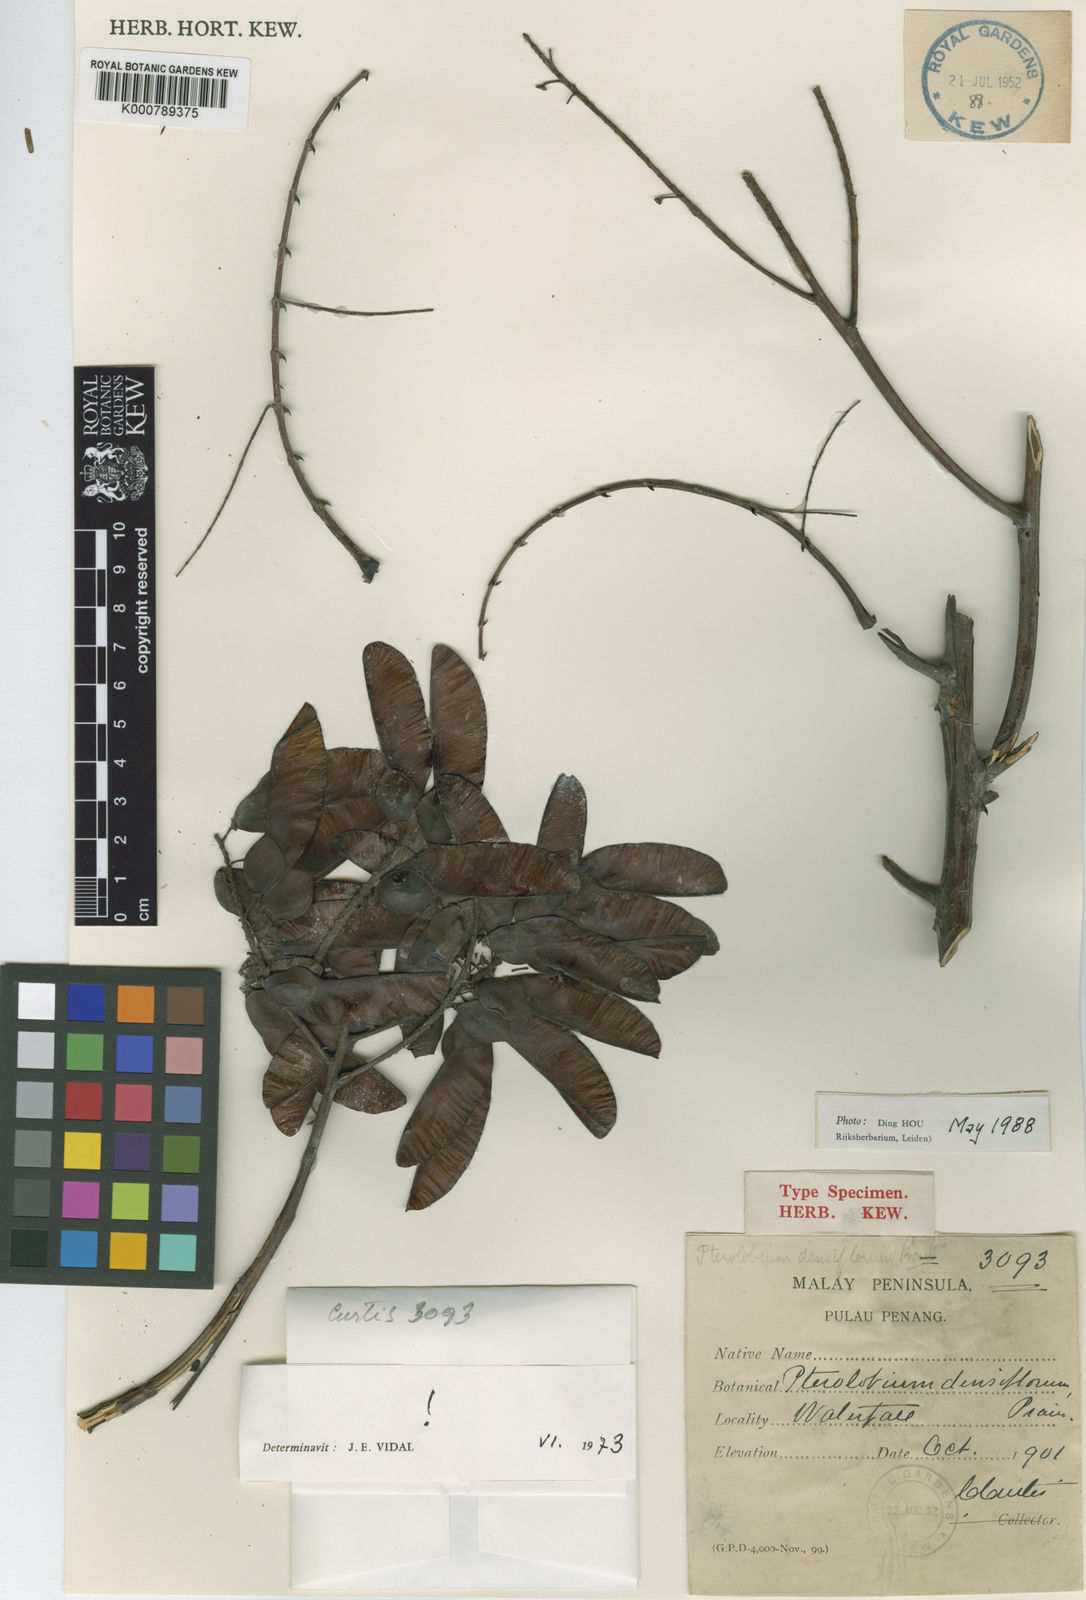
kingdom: Plantae
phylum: Tracheophyta
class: Magnoliopsida
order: Fabales
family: Fabaceae
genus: Pterolobium
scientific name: Pterolobium
